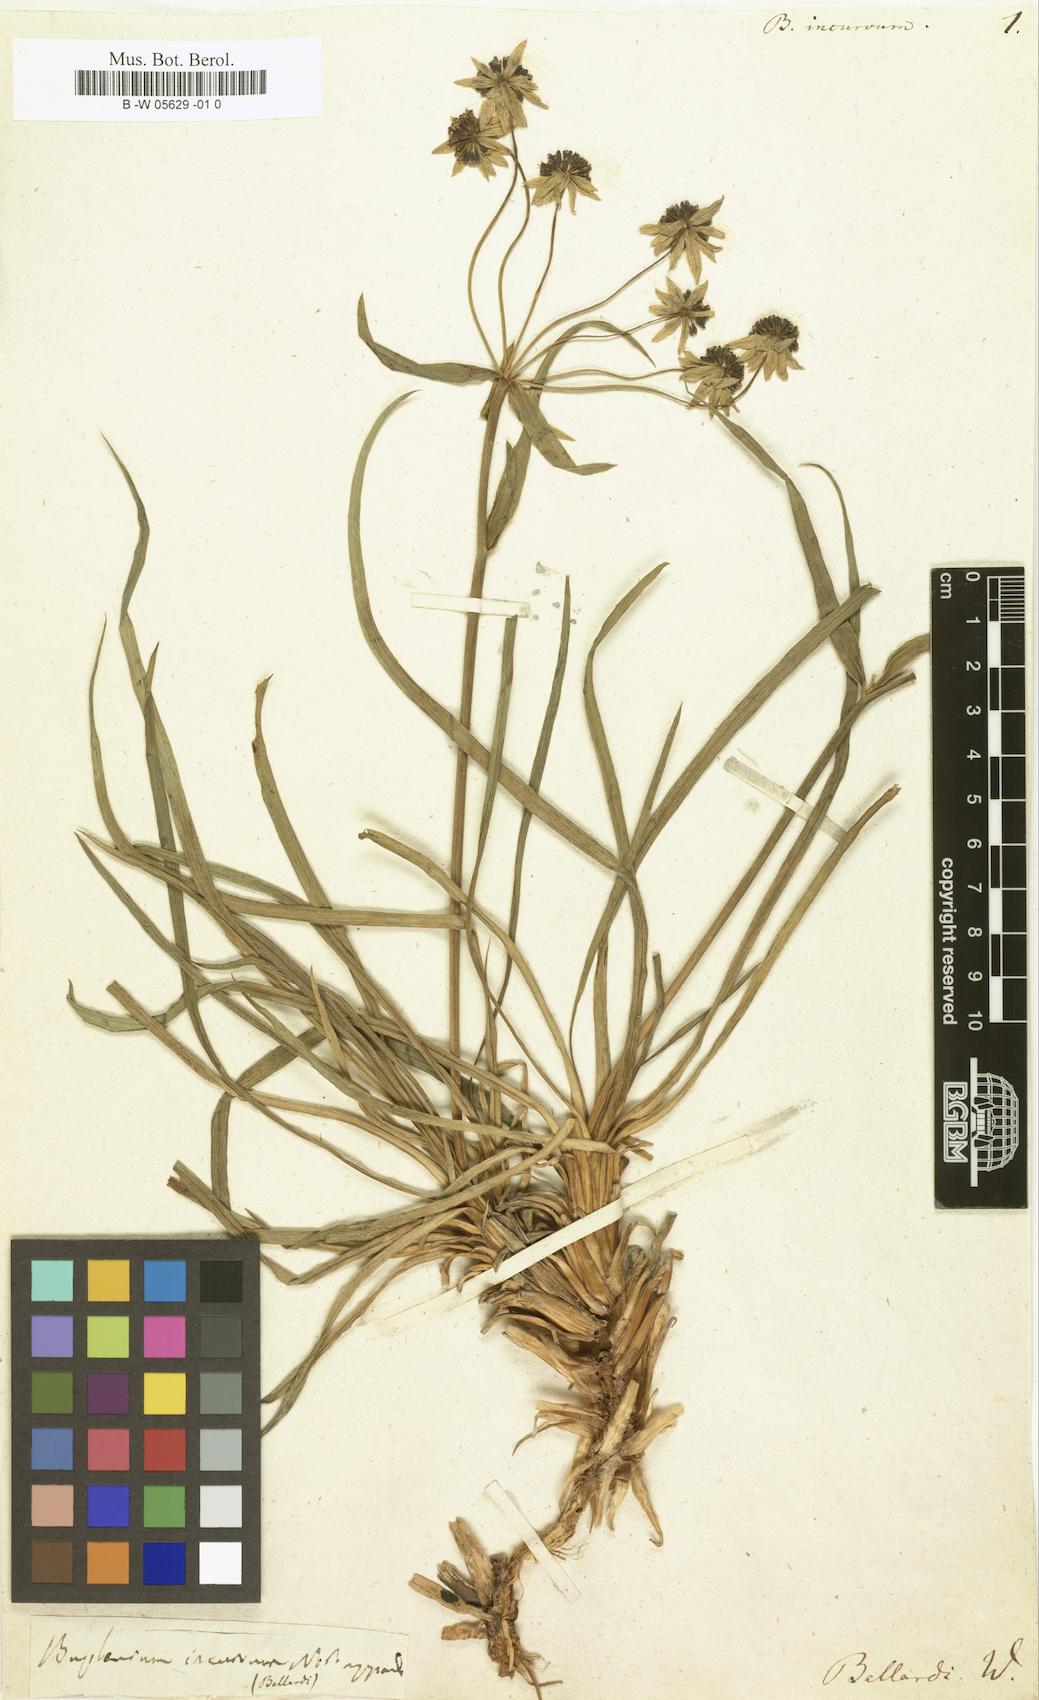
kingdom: Plantae
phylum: Tracheophyta
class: Magnoliopsida
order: Apiales
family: Apiaceae
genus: Bupleurum
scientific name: Bupleurum petraeum
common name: Rock hare's-ear
